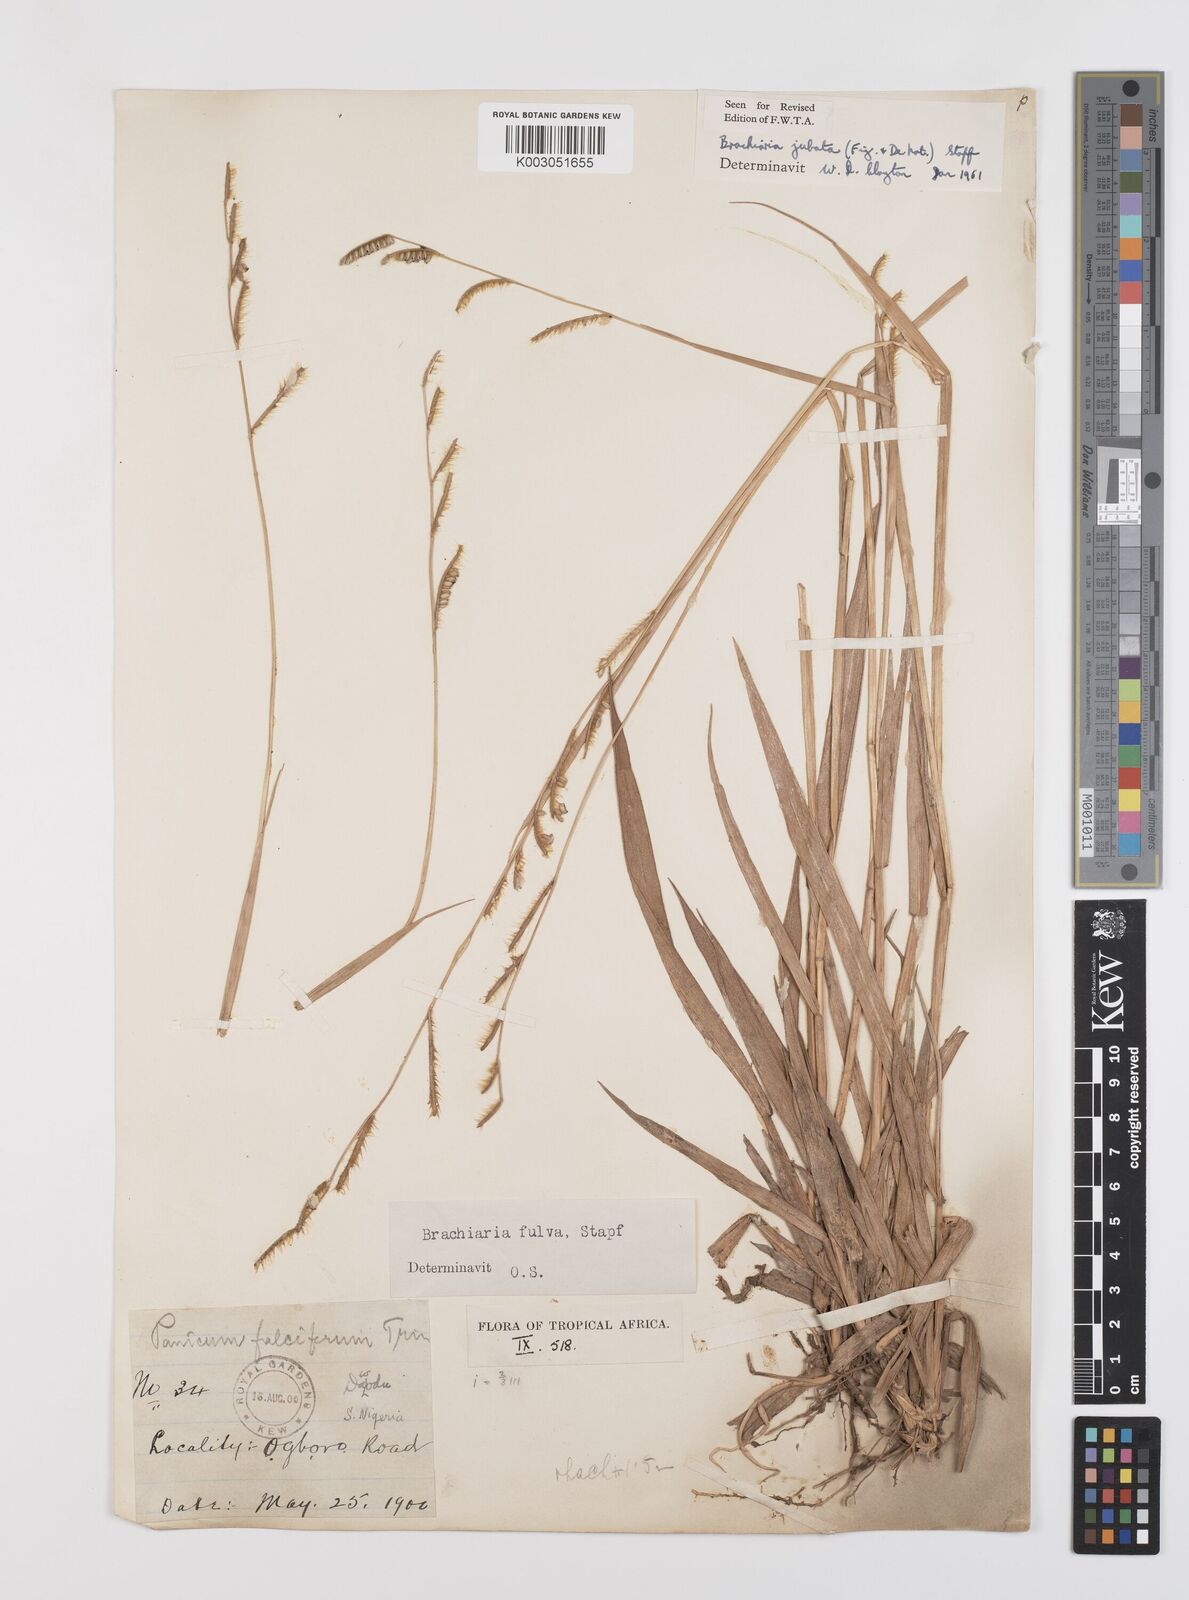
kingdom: Plantae
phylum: Tracheophyta
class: Liliopsida
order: Poales
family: Poaceae
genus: Urochloa
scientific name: Urochloa jubata
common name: Buffalograss
